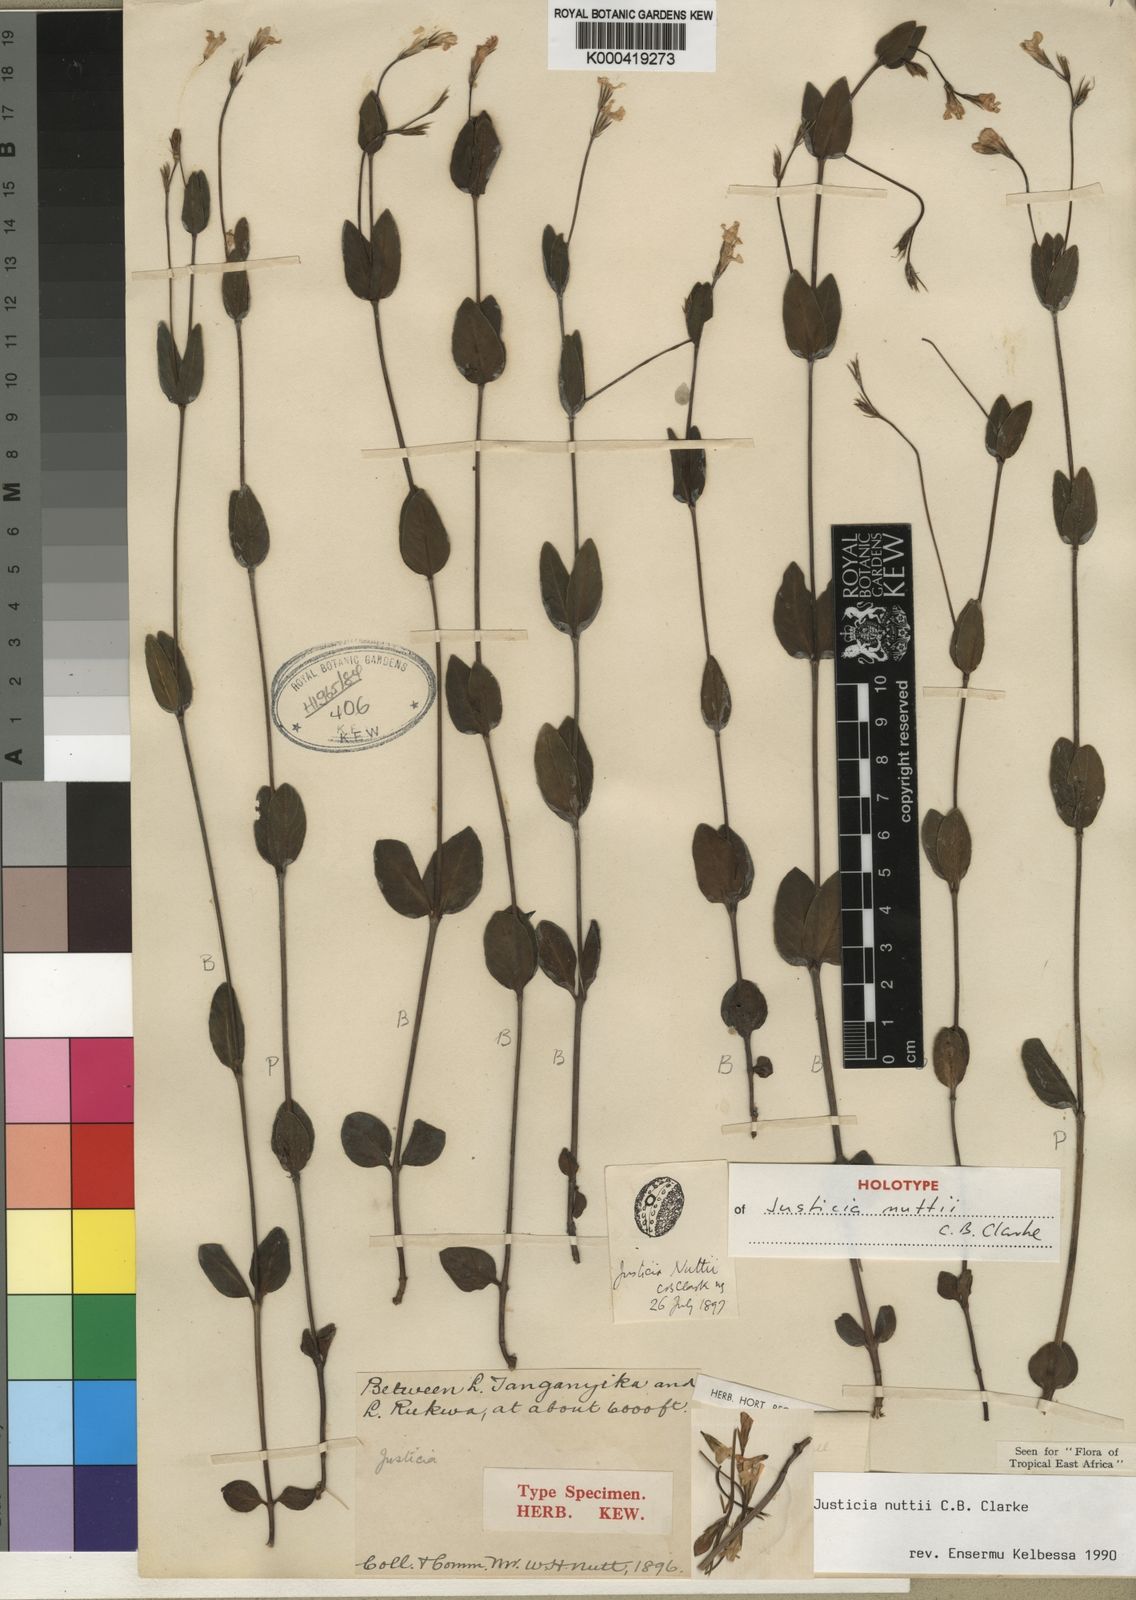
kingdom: Plantae
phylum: Tracheophyta
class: Magnoliopsida
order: Lamiales
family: Acanthaceae
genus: Justicia
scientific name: Justicia nuttii
